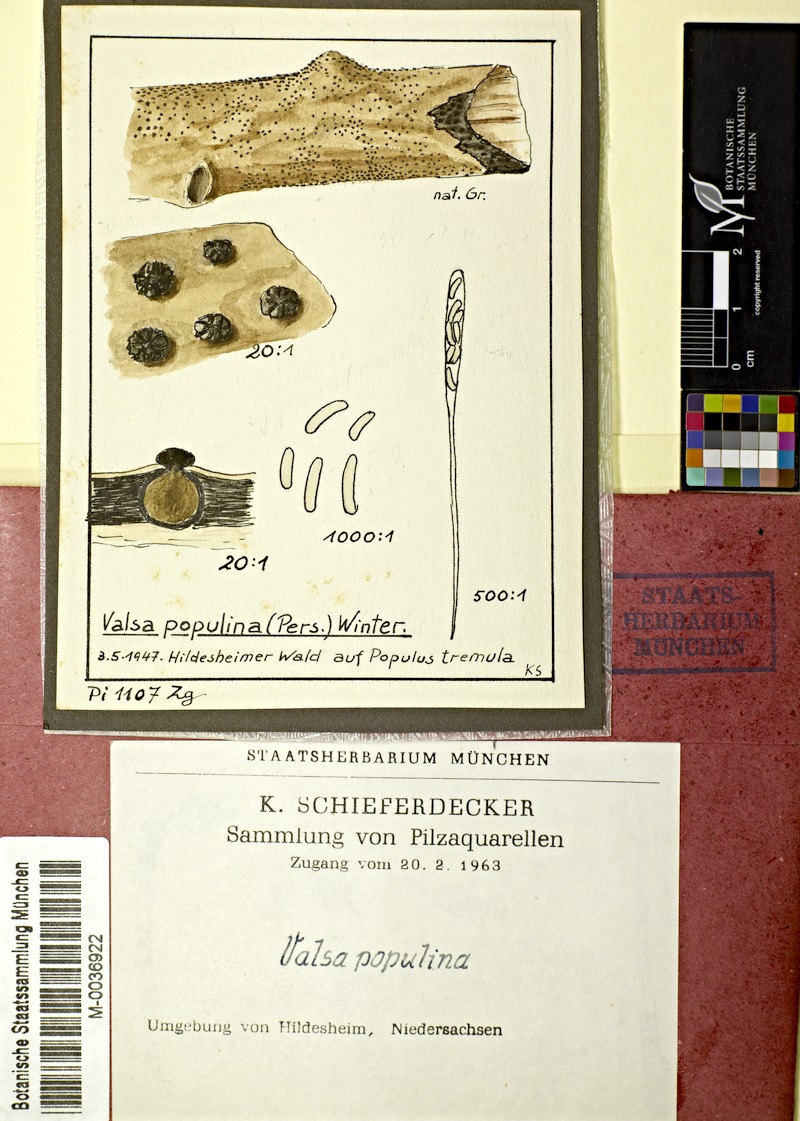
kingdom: Fungi
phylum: Ascomycota
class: Sordariomycetes
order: Diaporthales
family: Valsaceae
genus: Cytospora
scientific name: Cytospora populina
